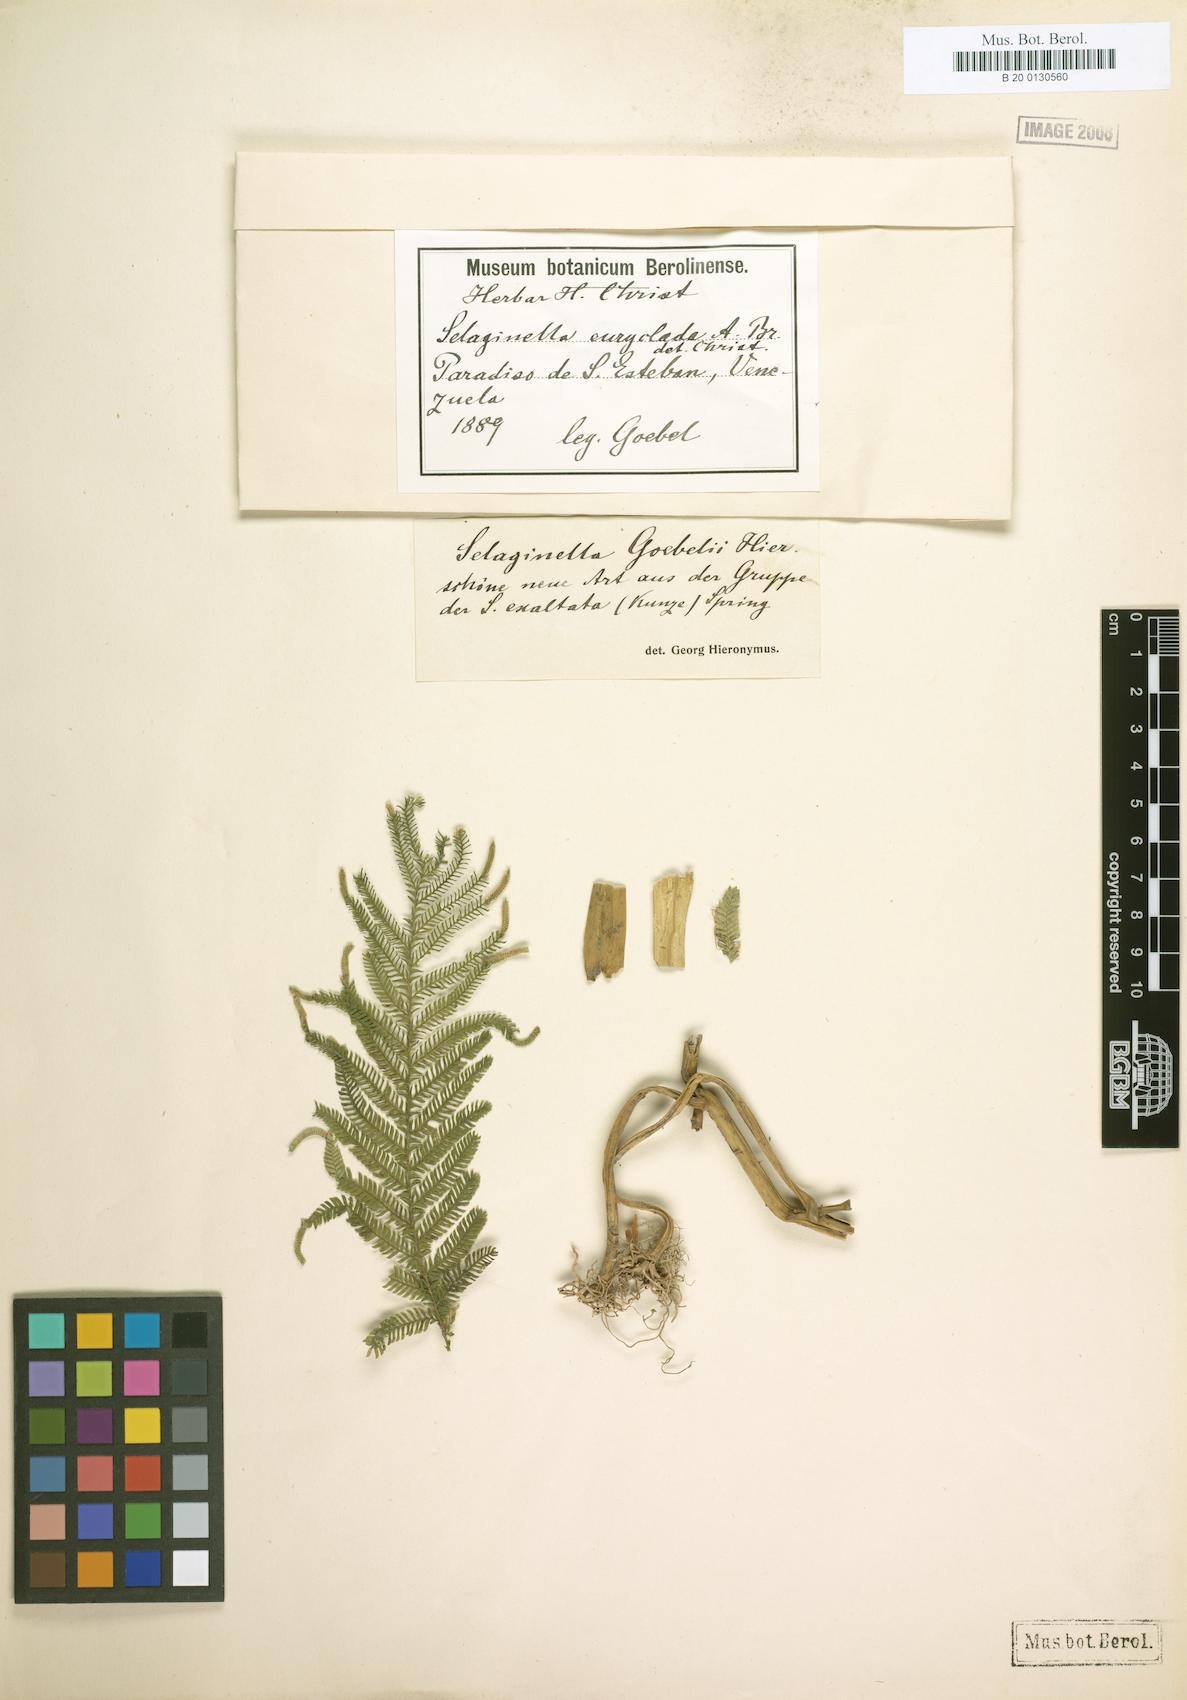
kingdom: Plantae
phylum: Tracheophyta
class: Lycopodiopsida
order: Selaginellales
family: Selaginellaceae
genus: Selaginella
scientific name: Selaginella parkeri
